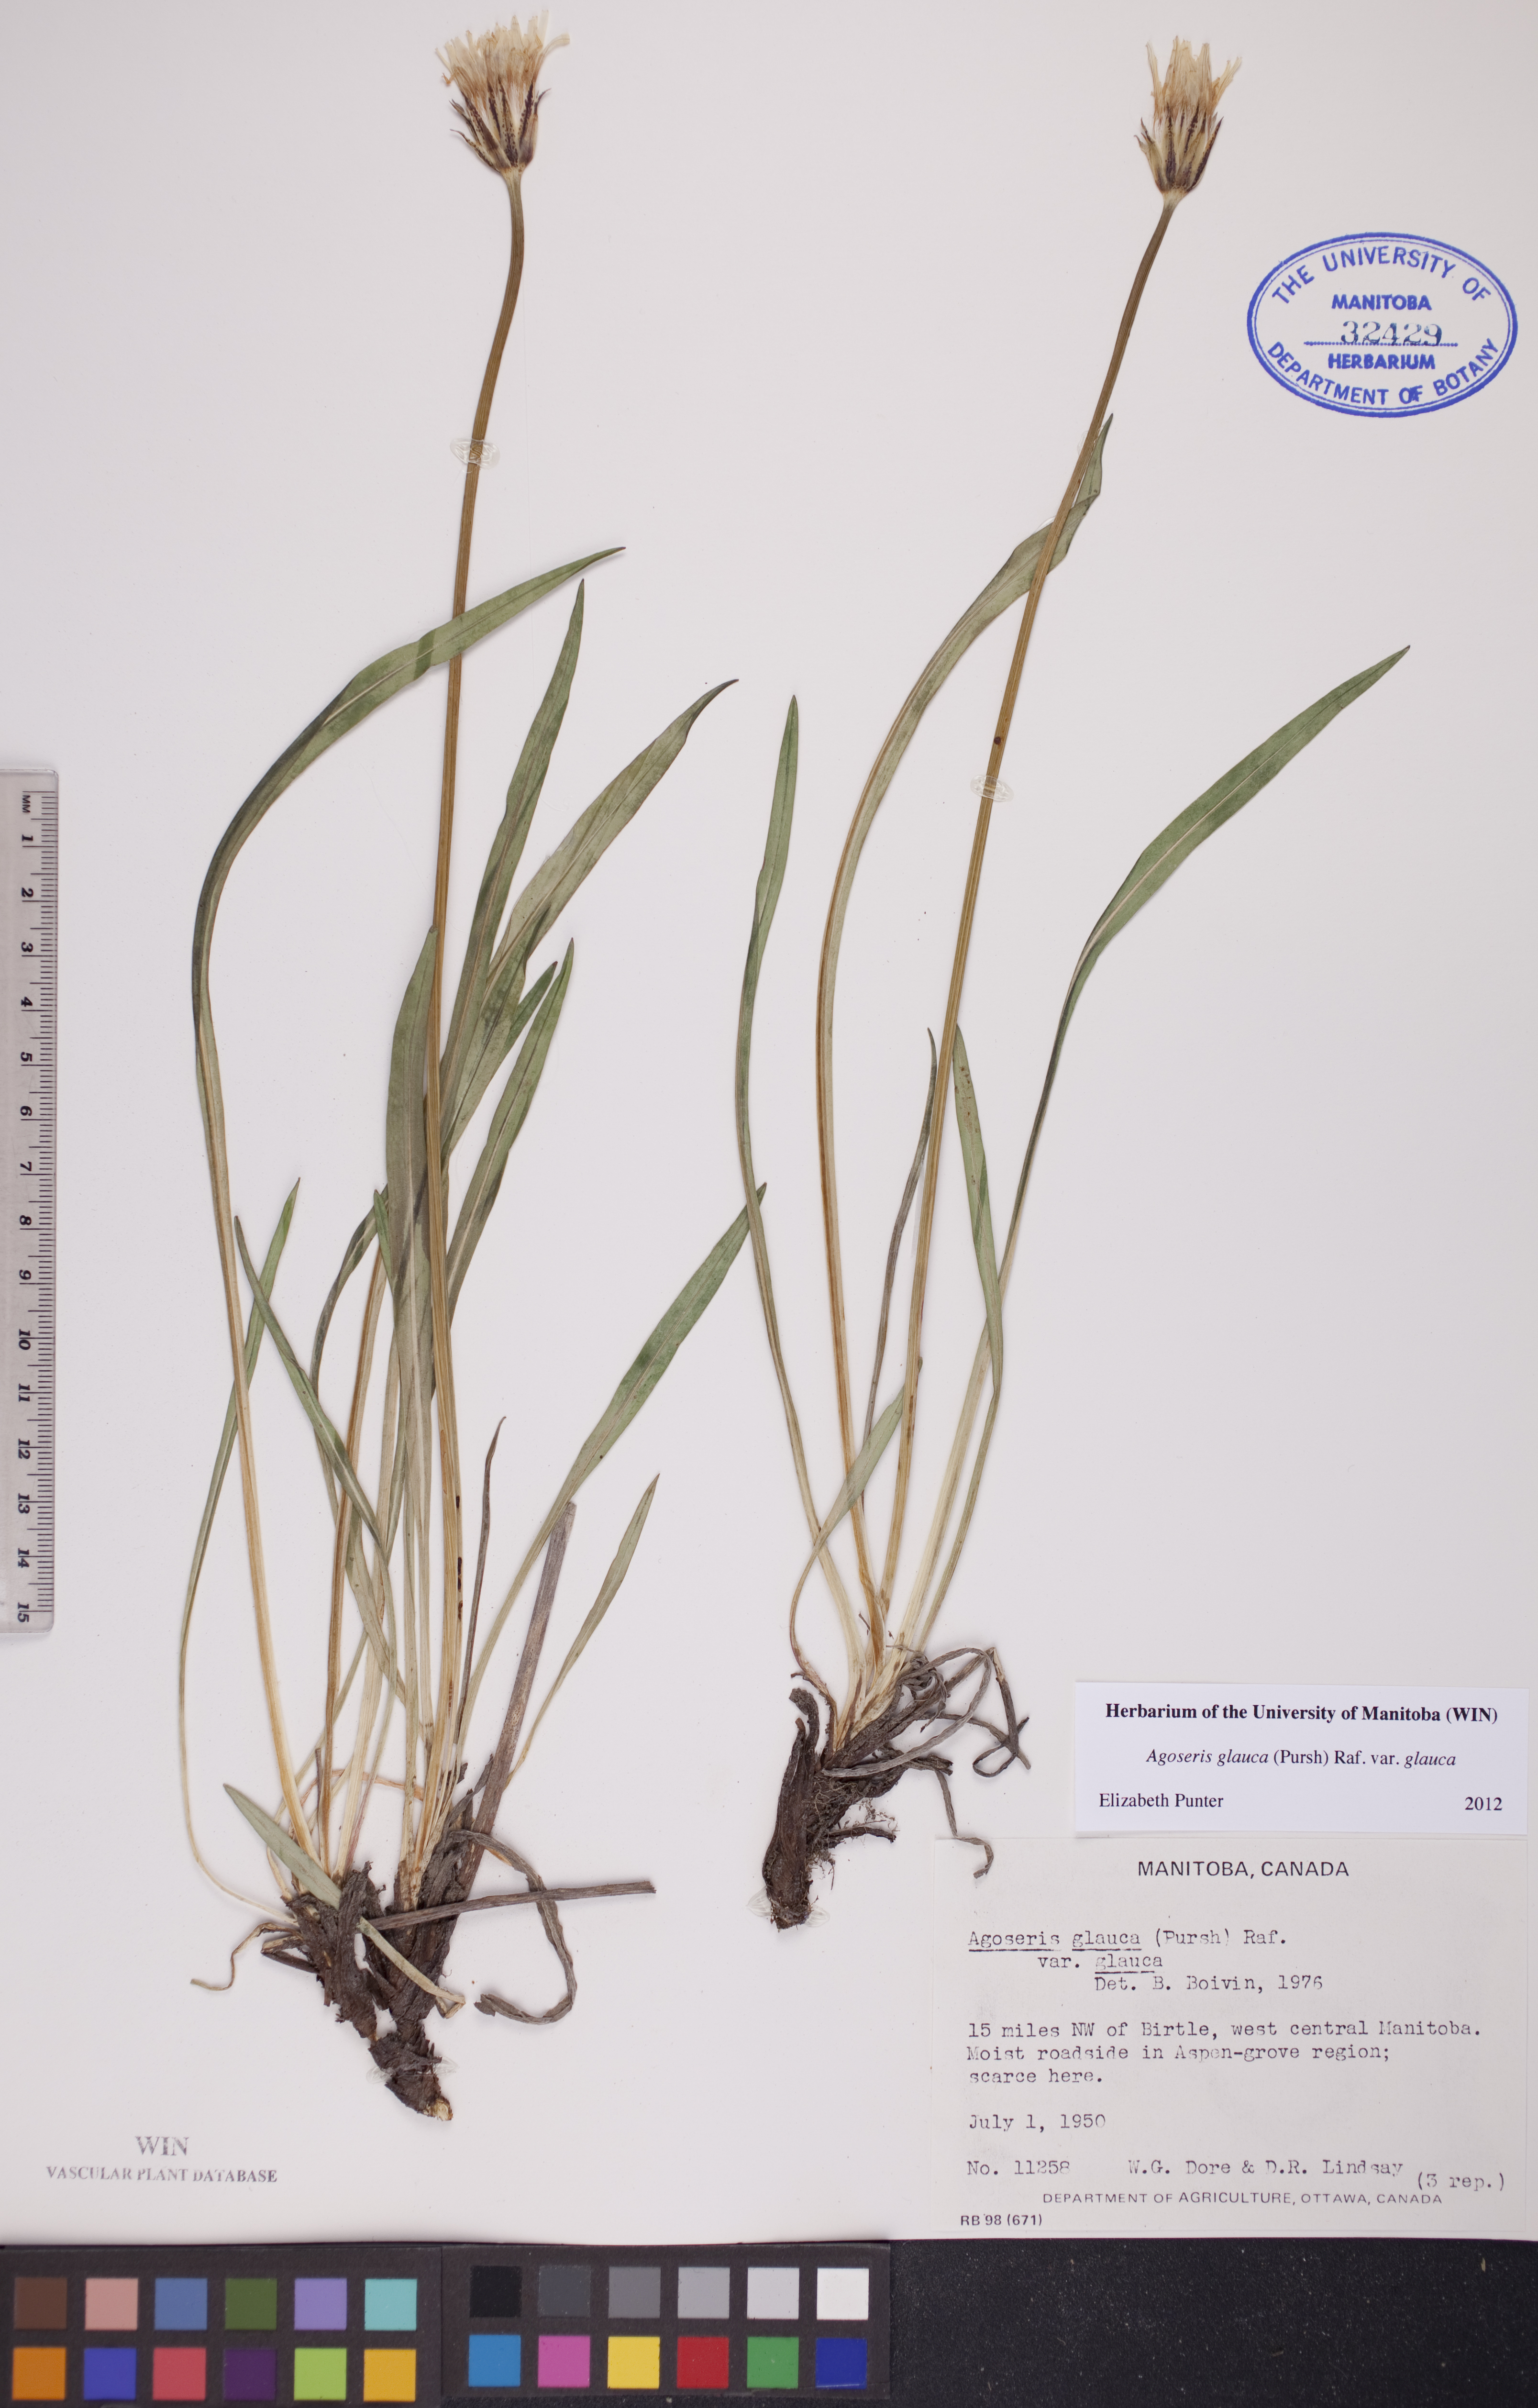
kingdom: Plantae
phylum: Tracheophyta
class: Magnoliopsida
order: Asterales
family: Asteraceae
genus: Agoseris
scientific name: Agoseris glauca
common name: Prairie agoseris
